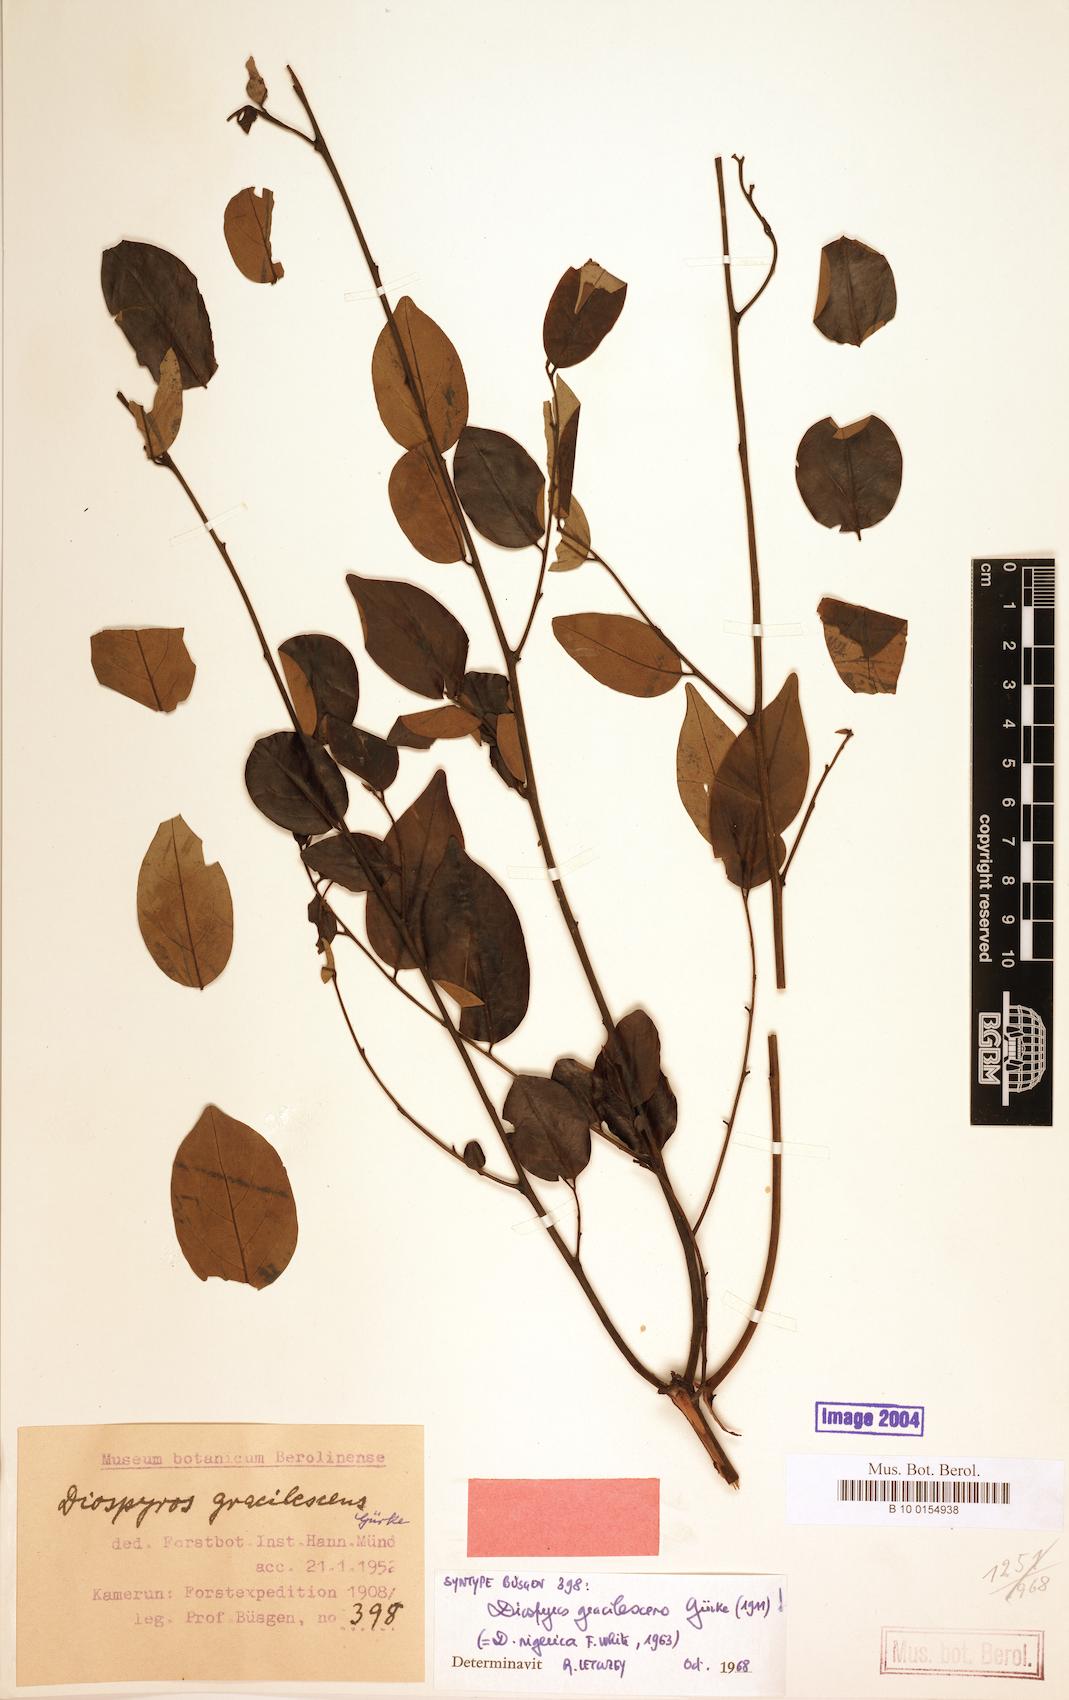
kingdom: Plantae
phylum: Tracheophyta
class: Magnoliopsida
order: Ericales
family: Ebenaceae
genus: Diospyros
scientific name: Diospyros gracilescens
